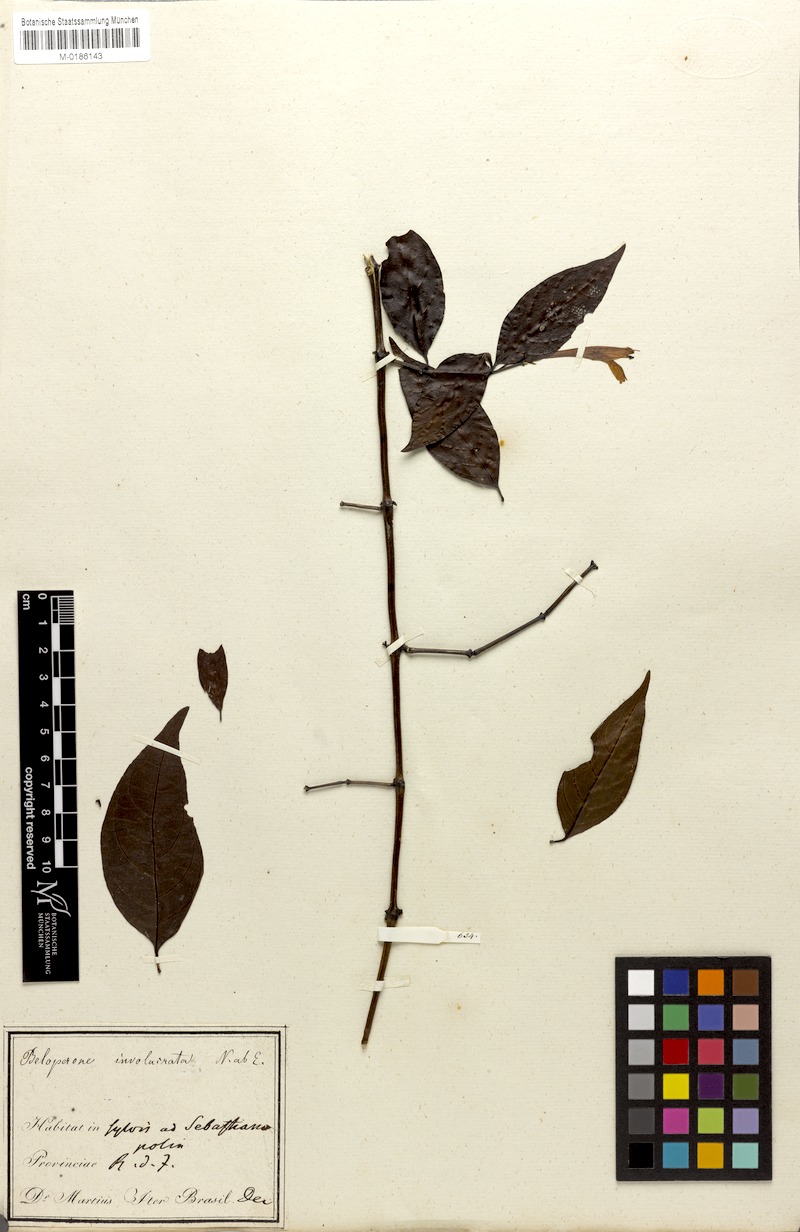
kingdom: Plantae
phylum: Tracheophyta
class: Magnoliopsida
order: Lamiales
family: Acanthaceae
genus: Justicia
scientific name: Justicia involucrata
